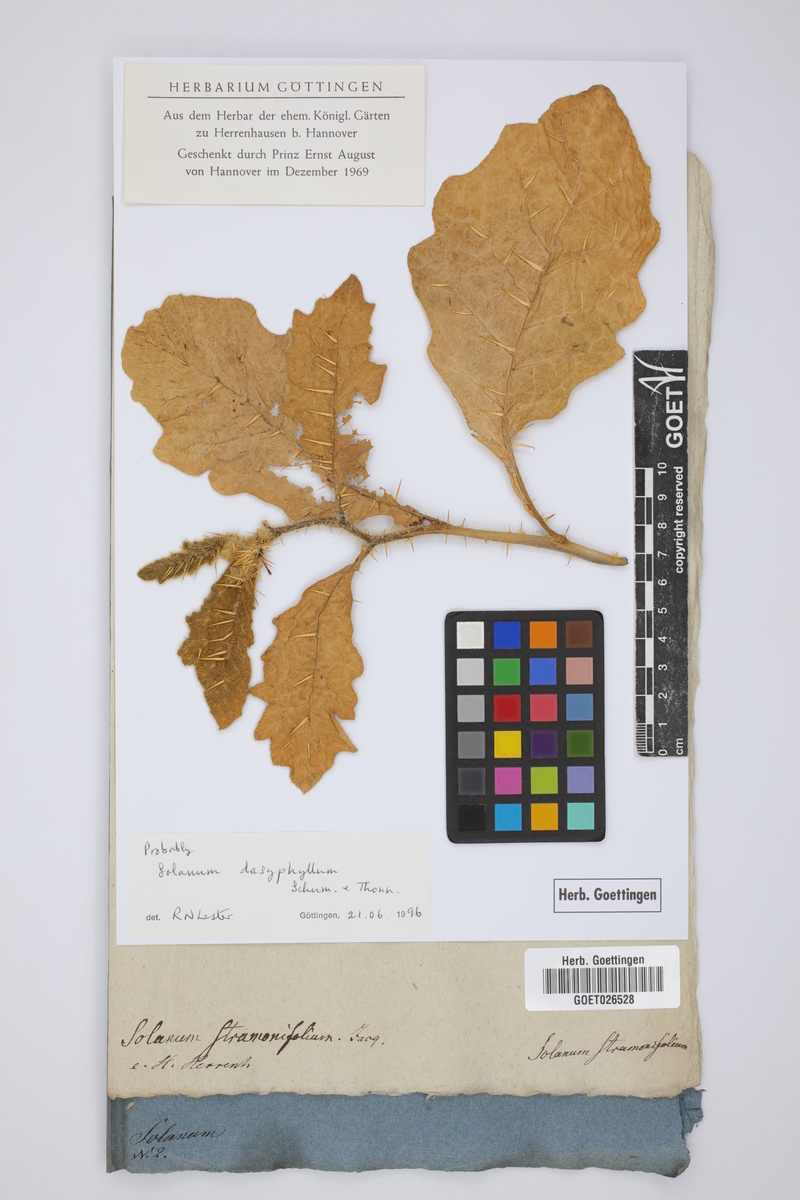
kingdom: Plantae
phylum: Tracheophyta
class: Magnoliopsida
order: Solanales
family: Solanaceae
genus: Solanum
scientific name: Solanum dasyphyllum
